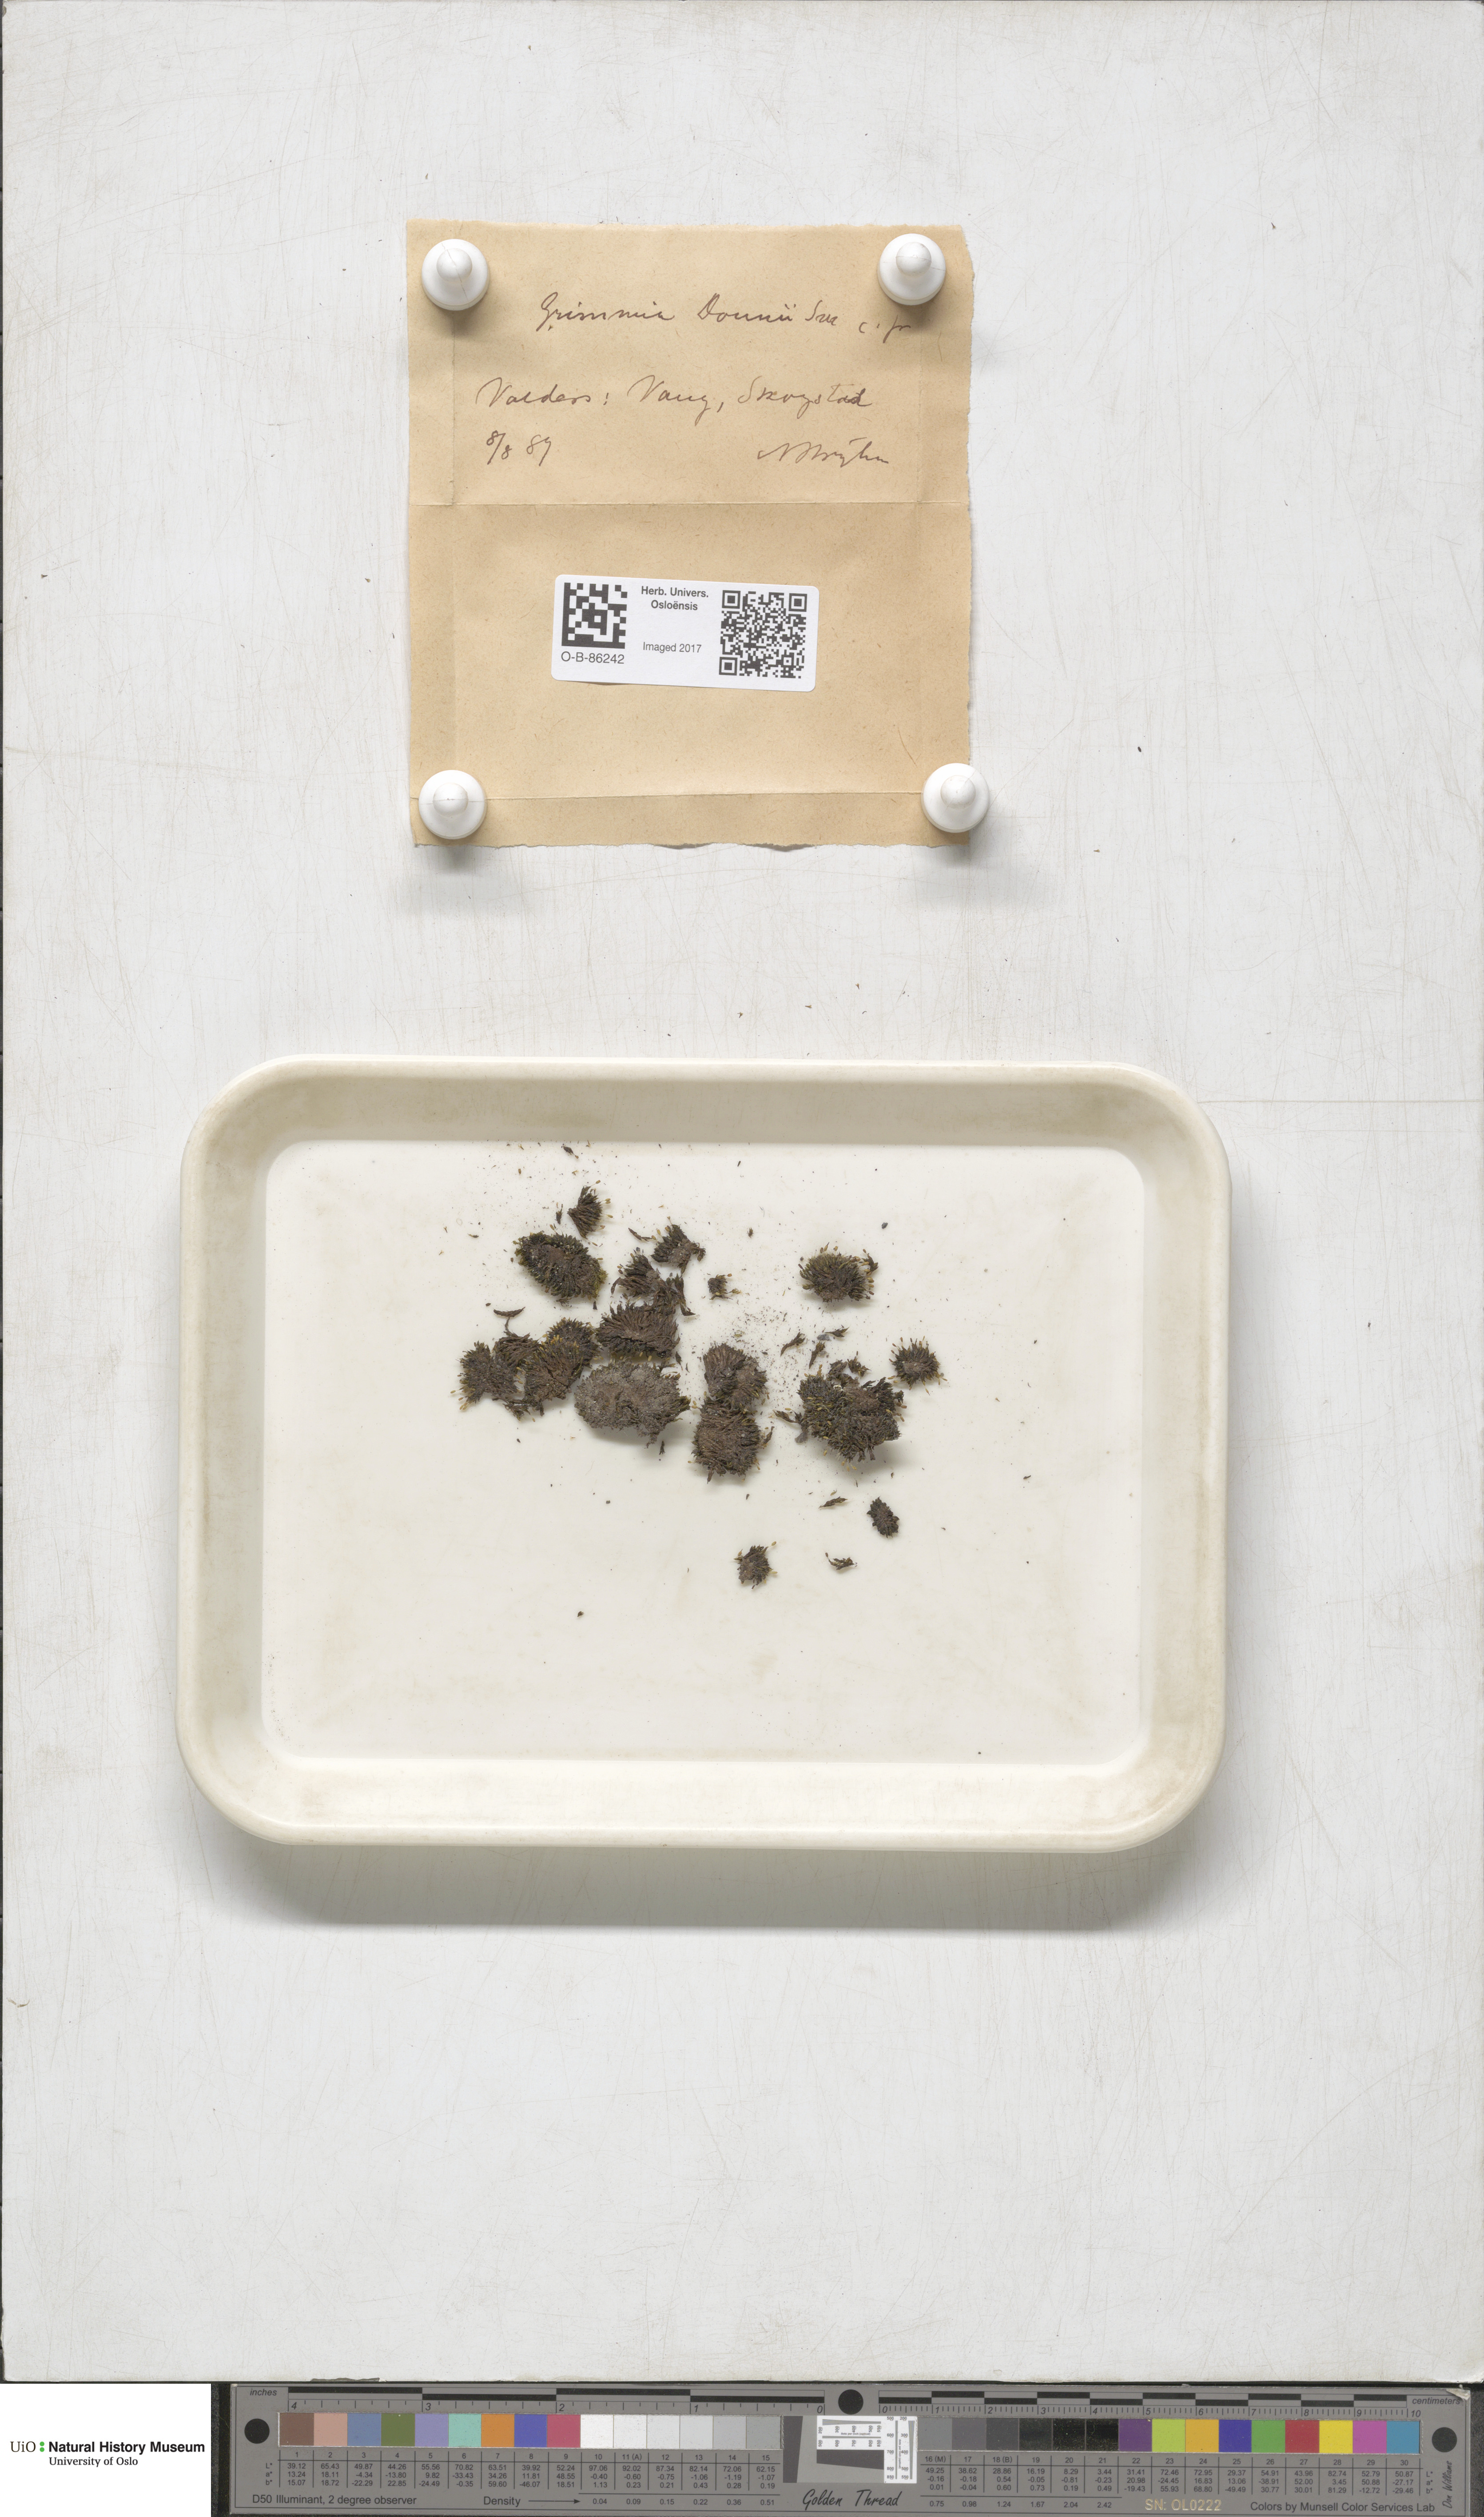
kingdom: Plantae
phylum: Bryophyta
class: Bryopsida
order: Grimmiales
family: Grimmiaceae
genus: Grimmia
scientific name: Grimmia donniana
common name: Donn's grimmia
